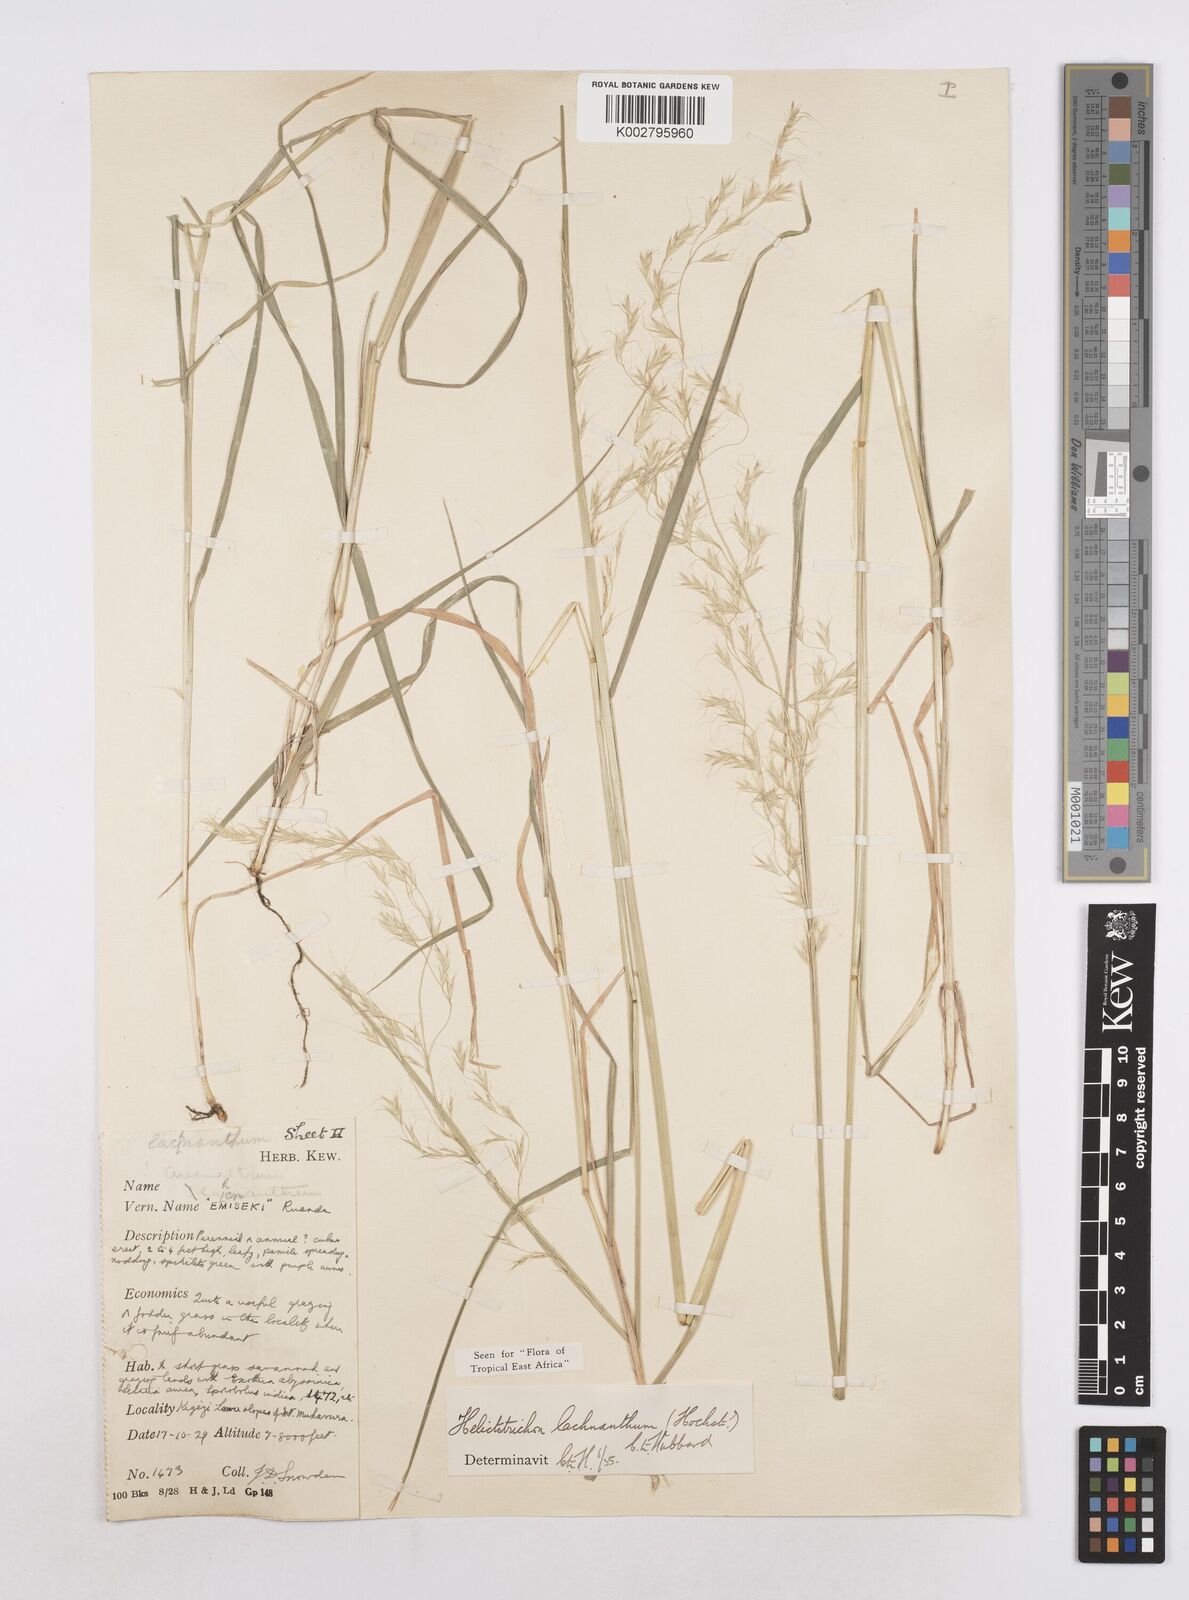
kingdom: Plantae
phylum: Tracheophyta
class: Liliopsida
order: Poales
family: Poaceae
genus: Trisetopsis
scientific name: Trisetopsis lachnantha
